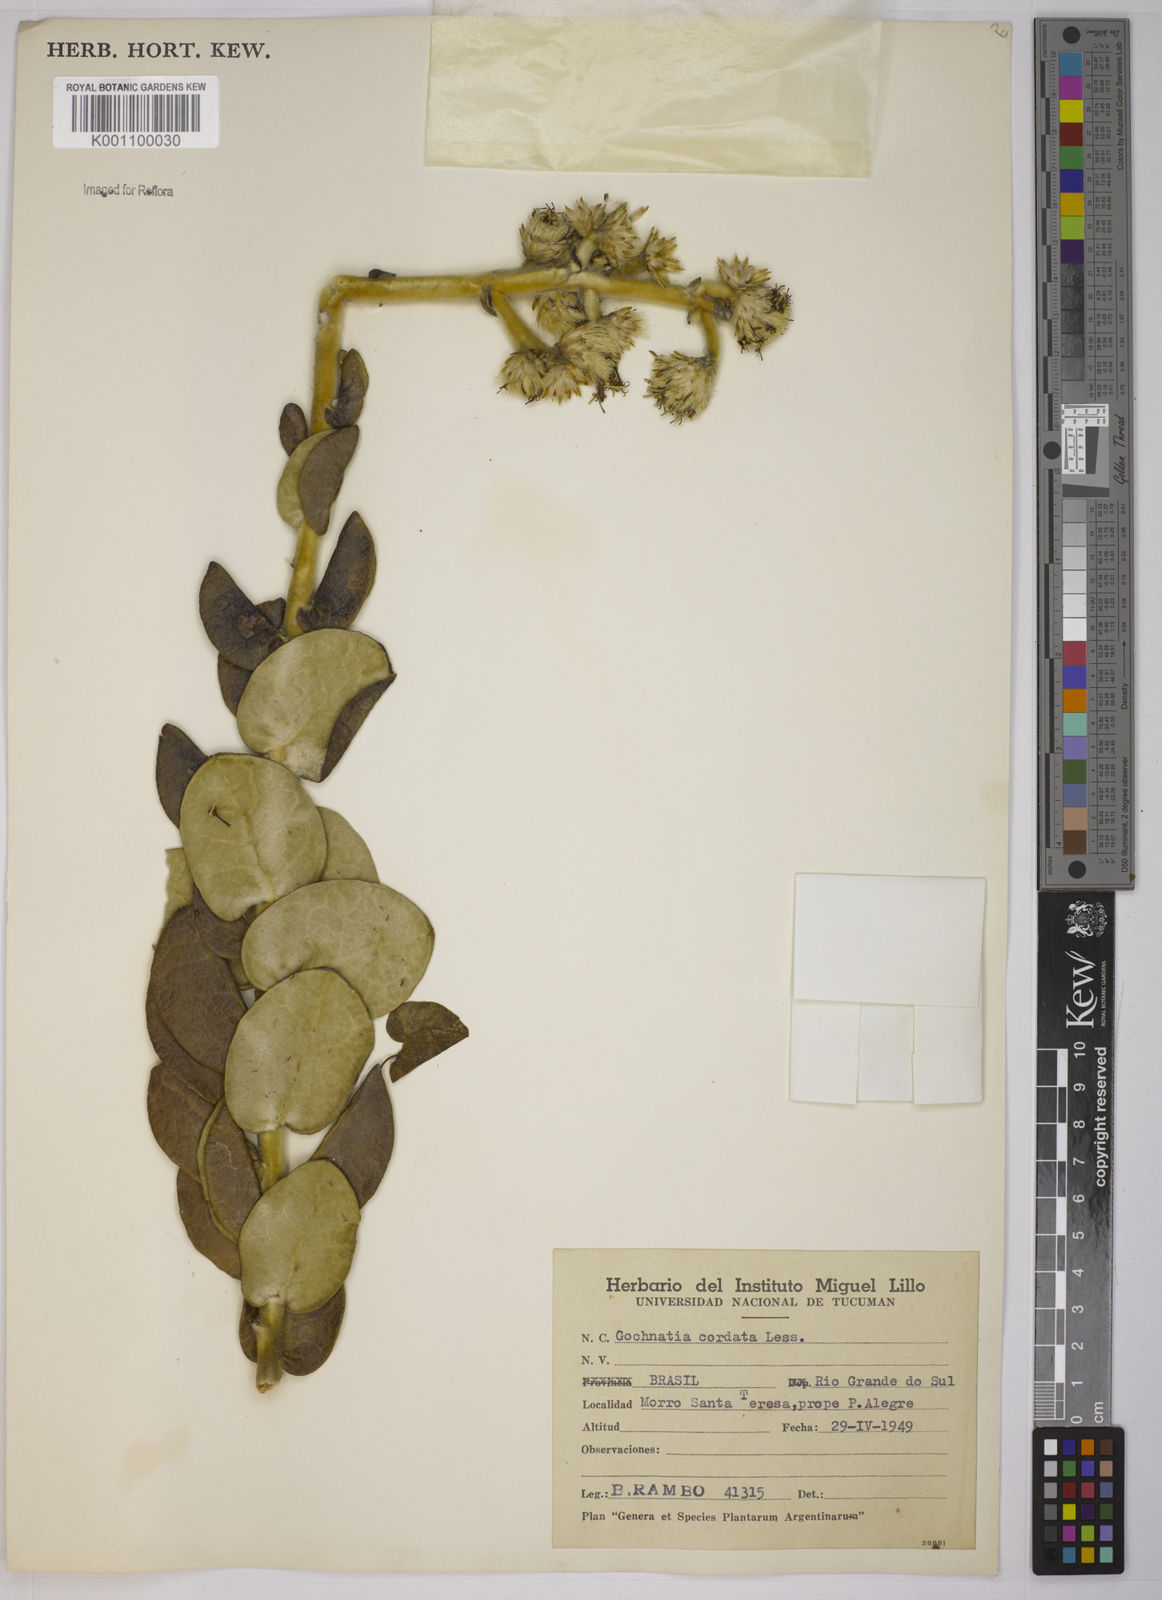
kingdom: Plantae
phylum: Tracheophyta
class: Magnoliopsida
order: Asterales
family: Asteraceae
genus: Gochnatia
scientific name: Gochnatia
